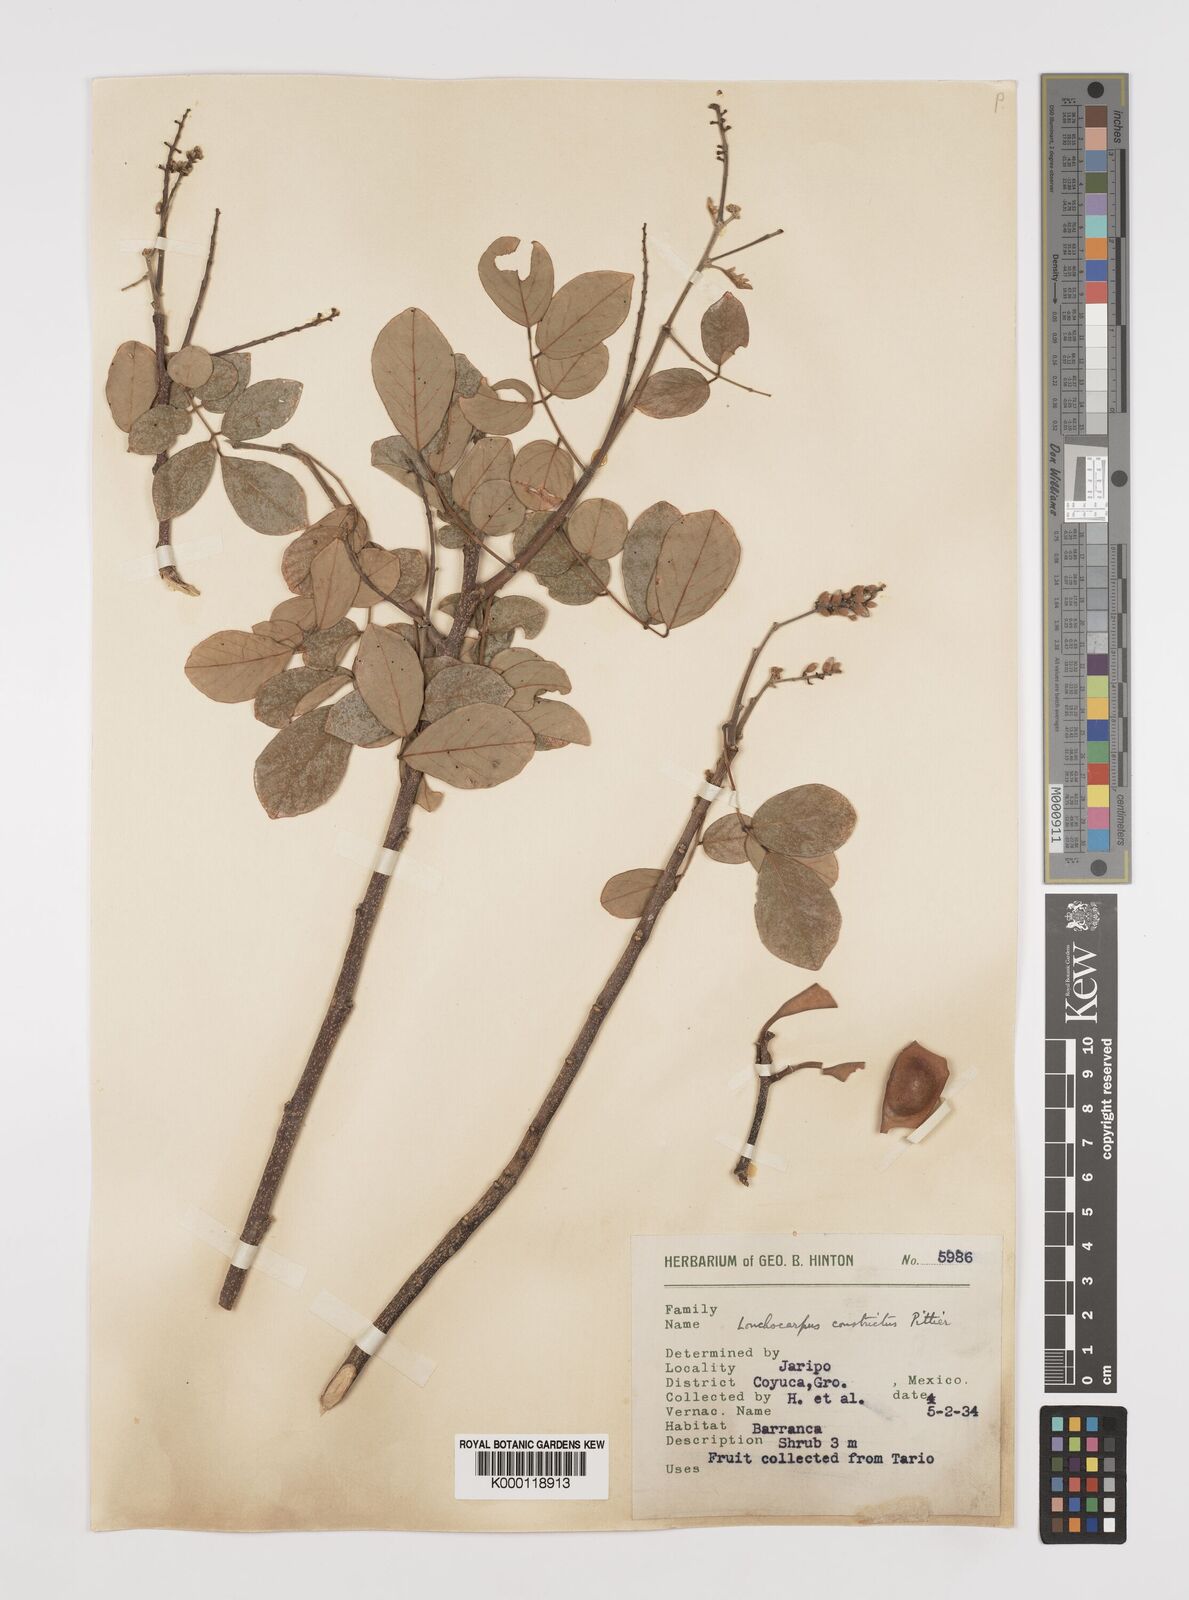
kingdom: Plantae
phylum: Tracheophyta
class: Magnoliopsida
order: Fabales
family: Fabaceae
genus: Lonchocarpus
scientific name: Lonchocarpus constrictus
